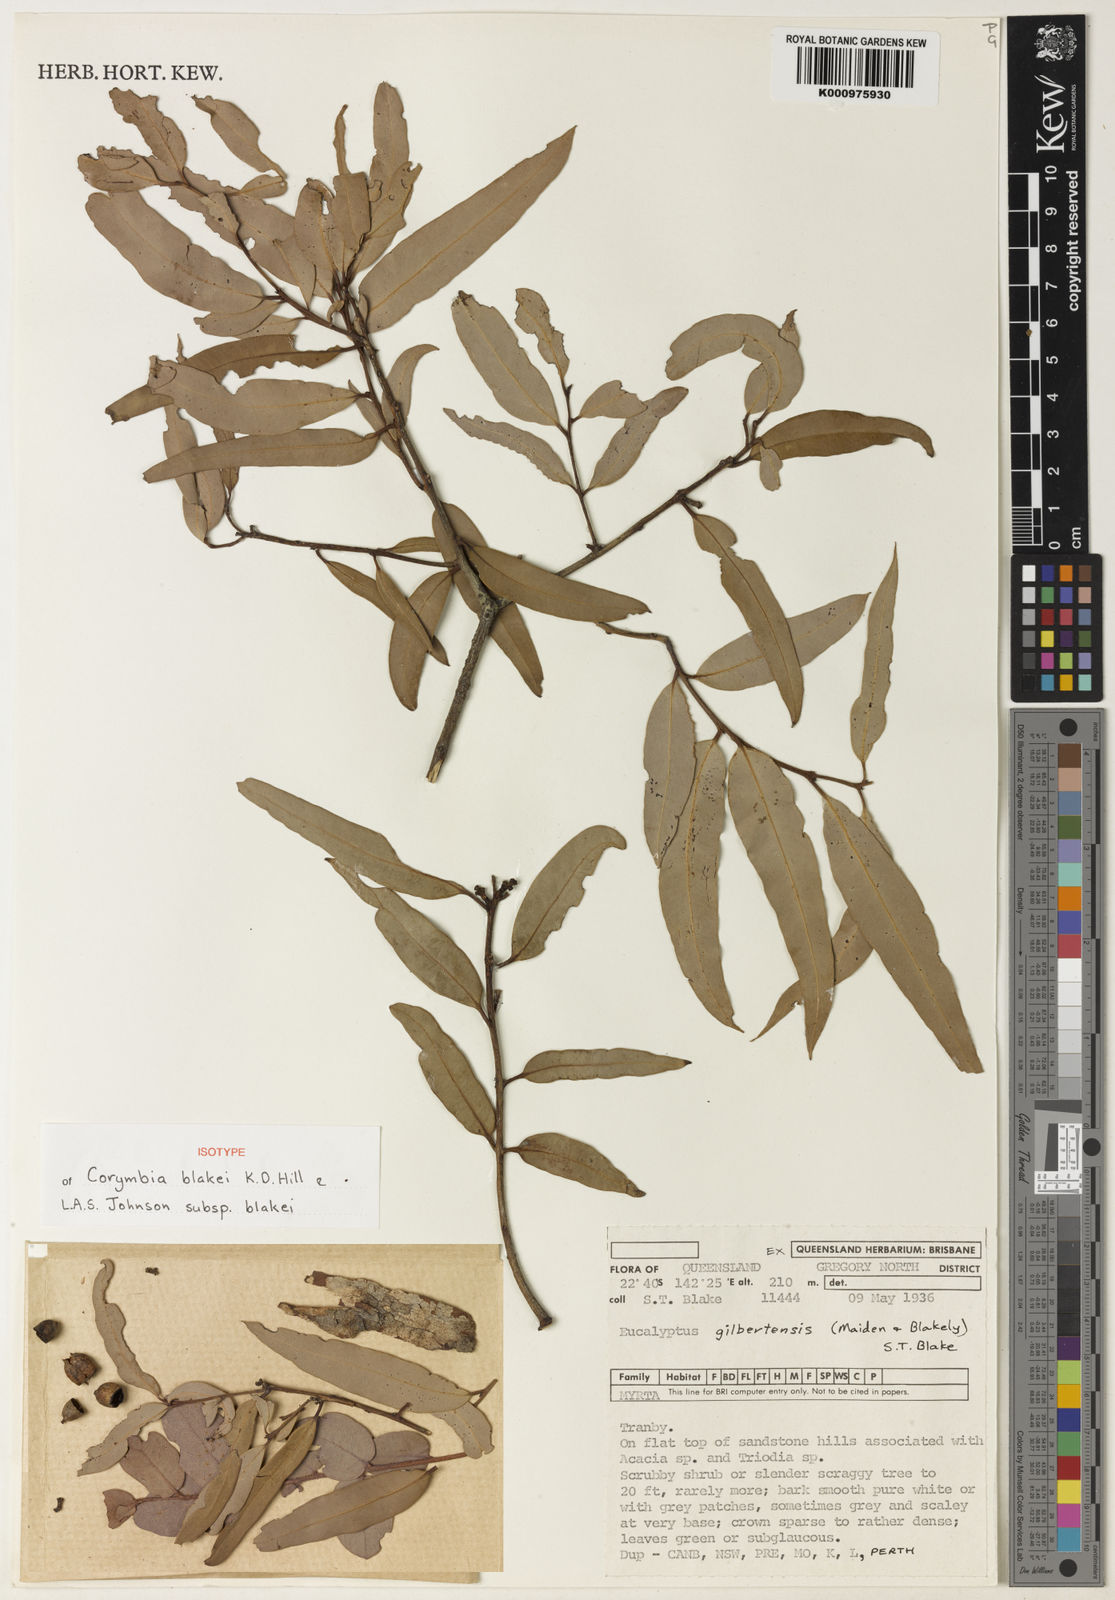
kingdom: Plantae
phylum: Tracheophyta
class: Magnoliopsida
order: Myrtales
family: Myrtaceae
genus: Corymbia
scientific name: Corymbia blakei
